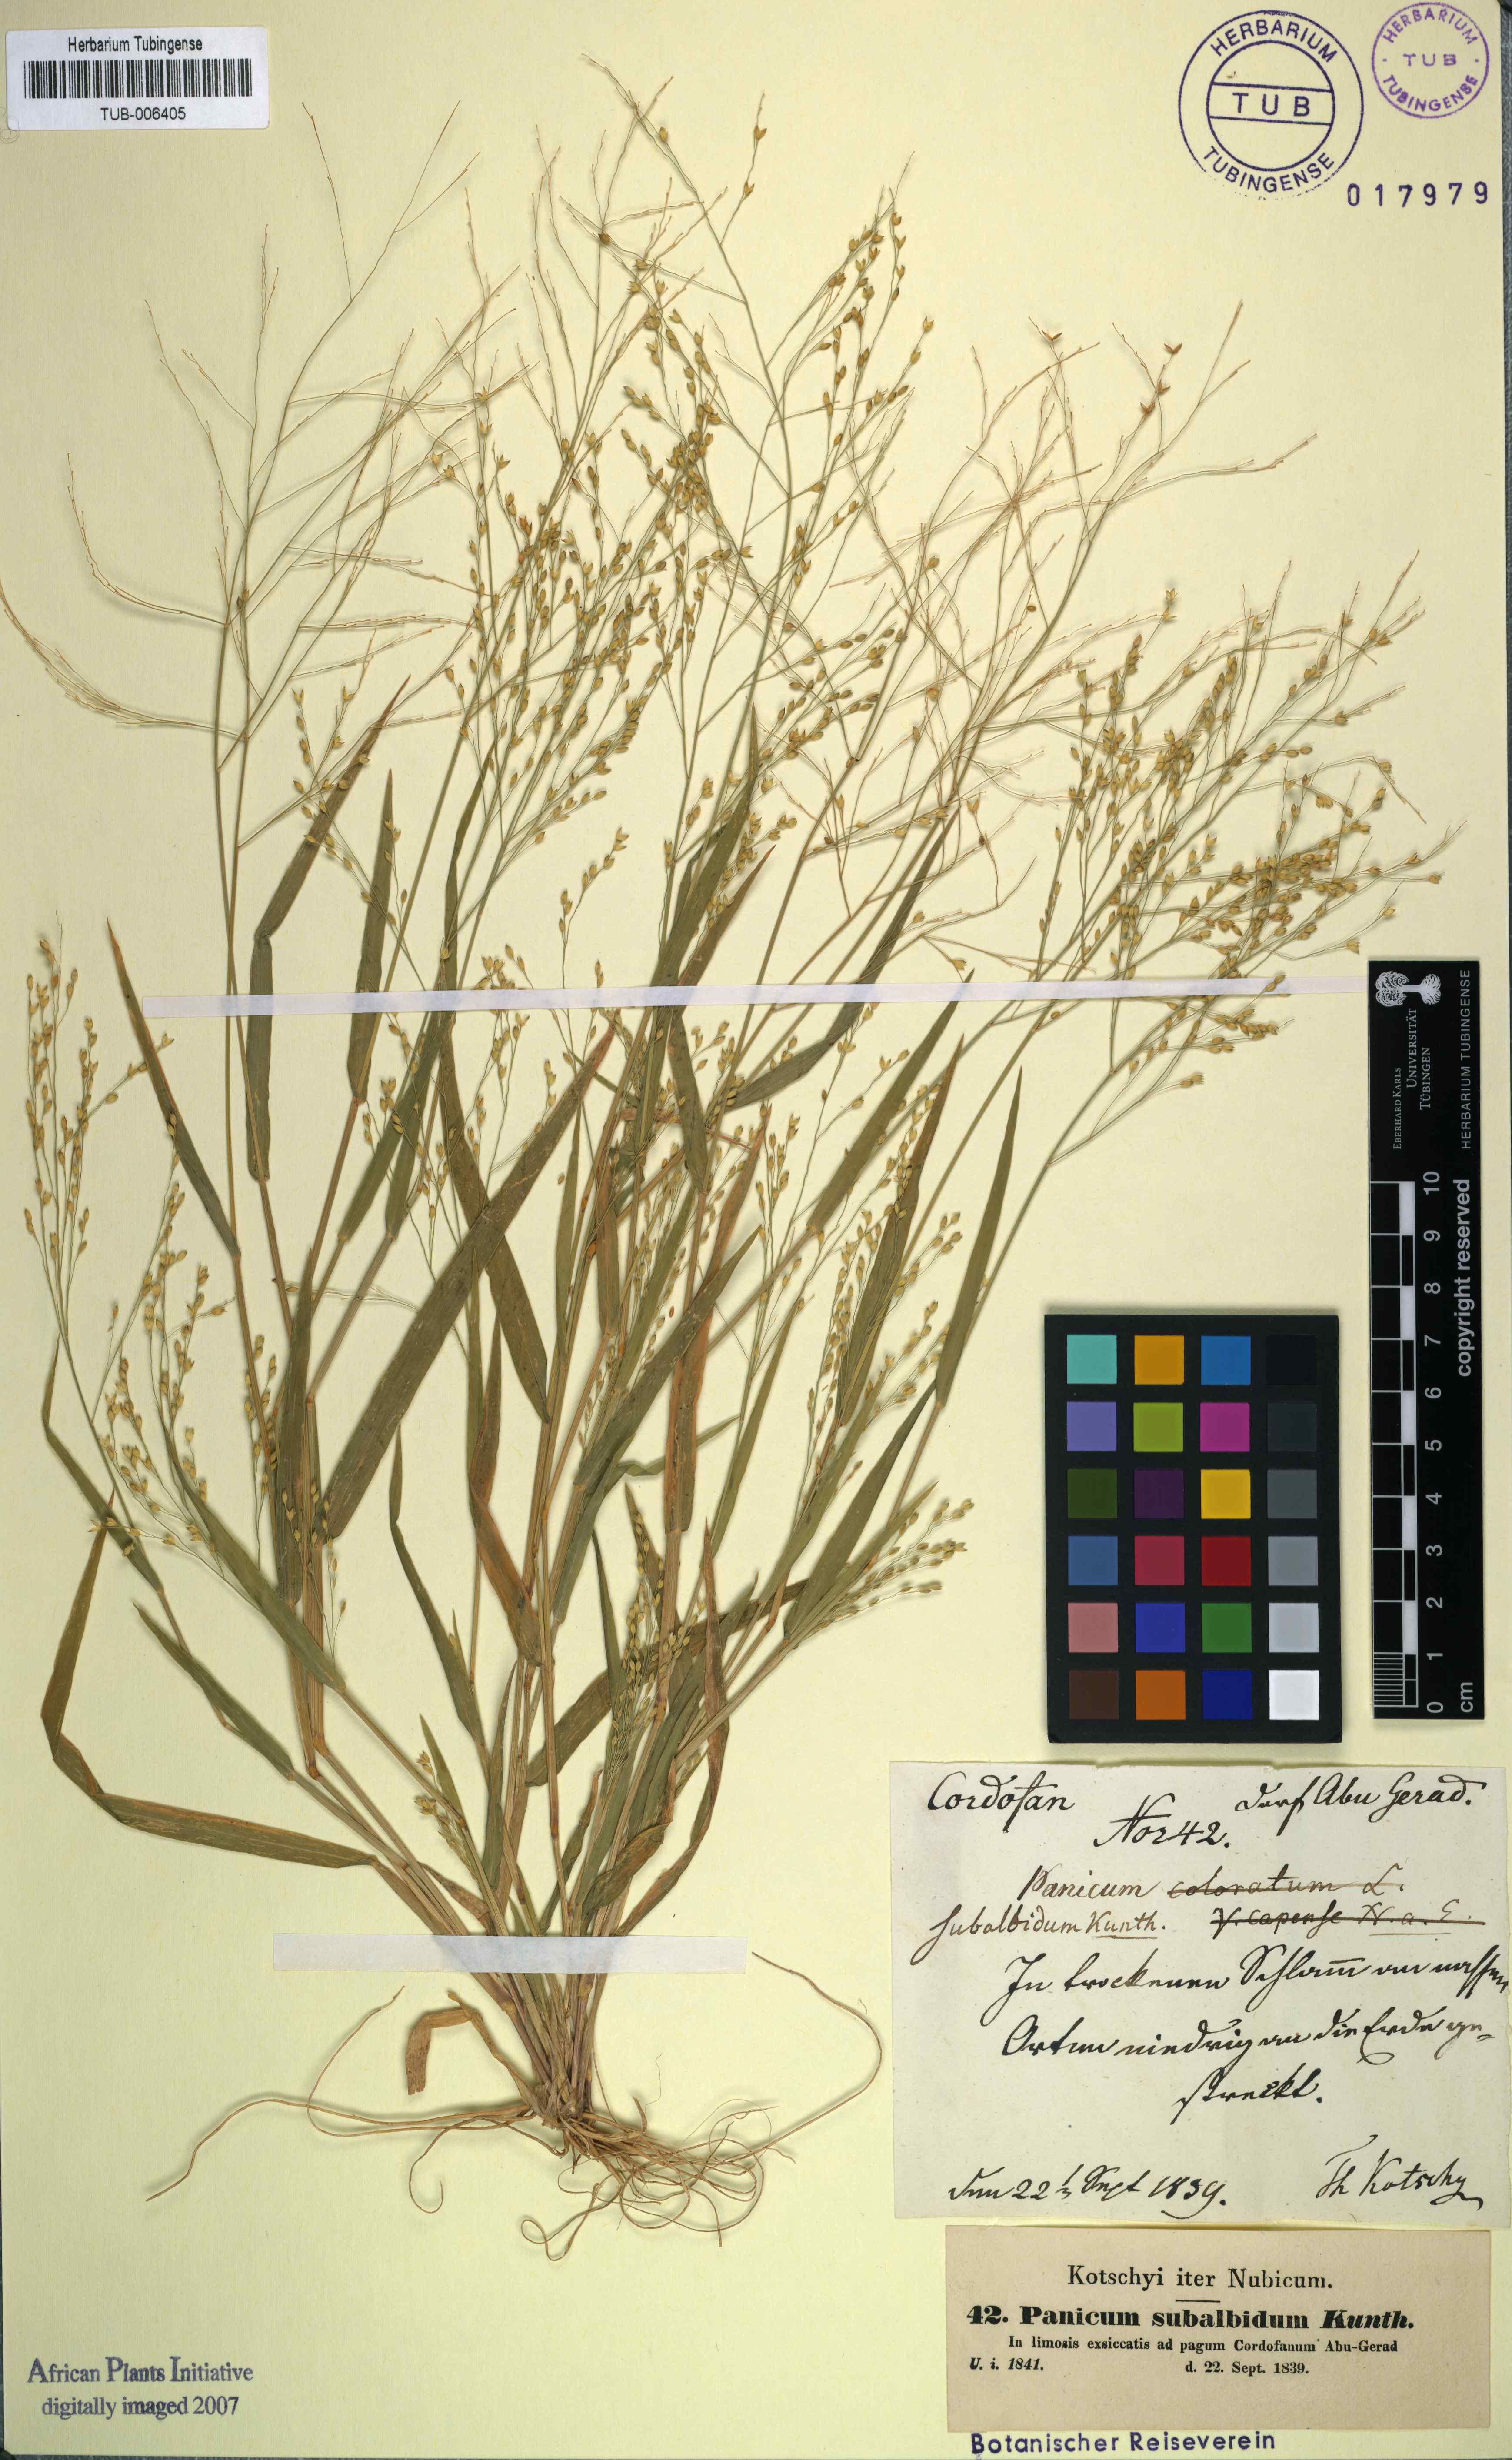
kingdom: Plantae
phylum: Tracheophyta
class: Liliopsida
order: Poales
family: Poaceae
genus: Panicum
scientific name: Panicum antidotale
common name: Blue panicum
